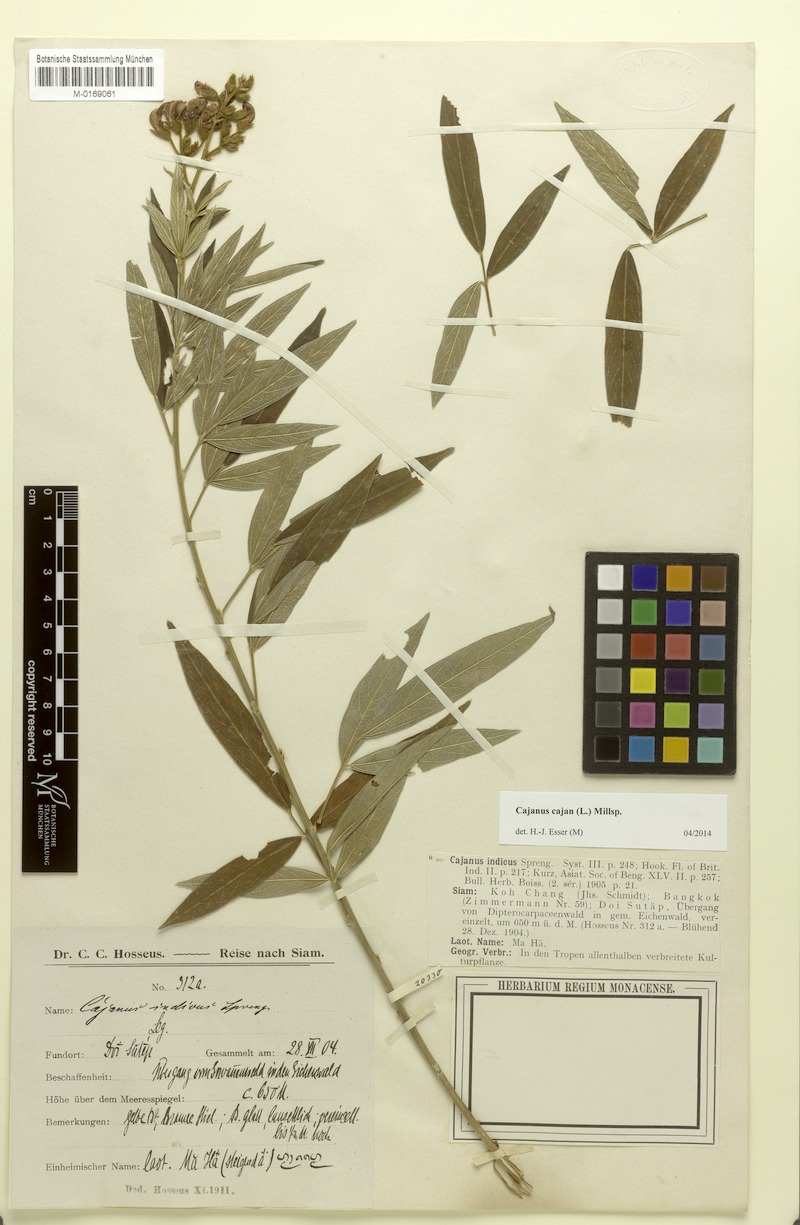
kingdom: Plantae
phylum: Tracheophyta
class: Magnoliopsida
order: Fabales
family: Fabaceae
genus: Cajanus
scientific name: Cajanus cajan
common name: Pigeonpea
